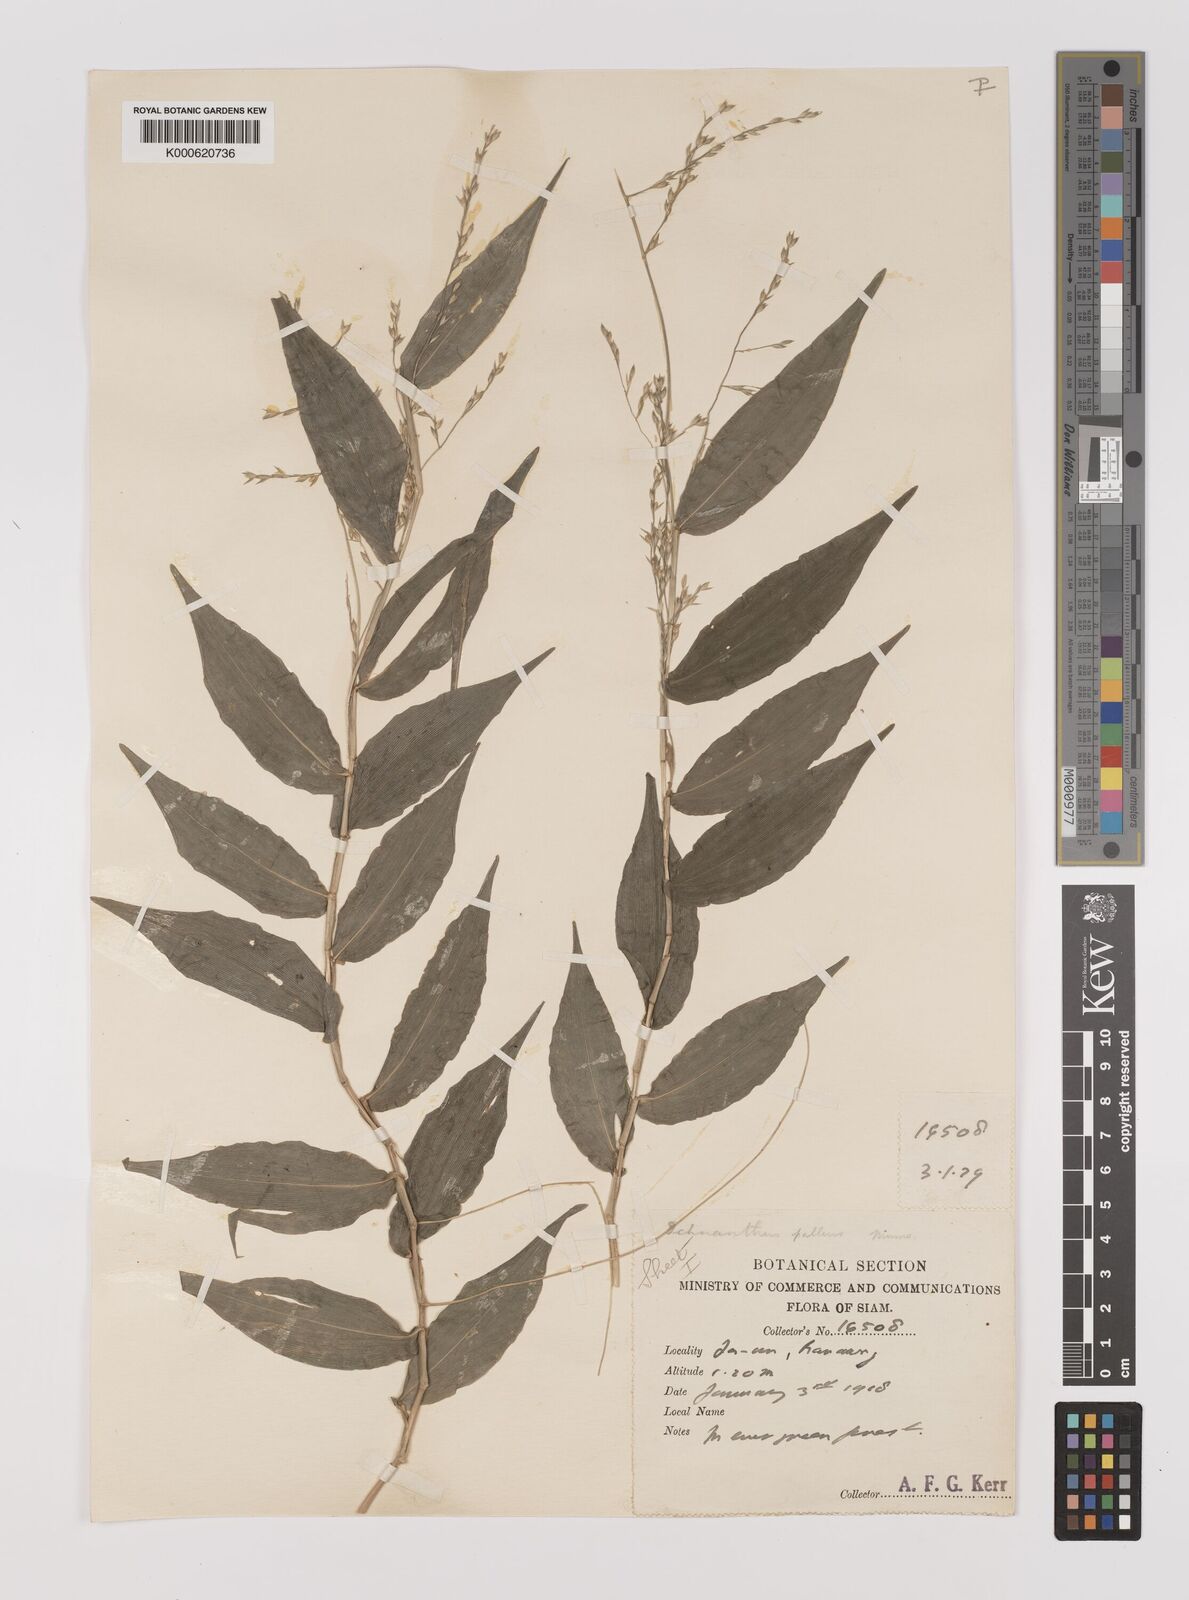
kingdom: Plantae
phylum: Tracheophyta
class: Liliopsida
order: Poales
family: Poaceae
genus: Ichnanthus
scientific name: Ichnanthus
